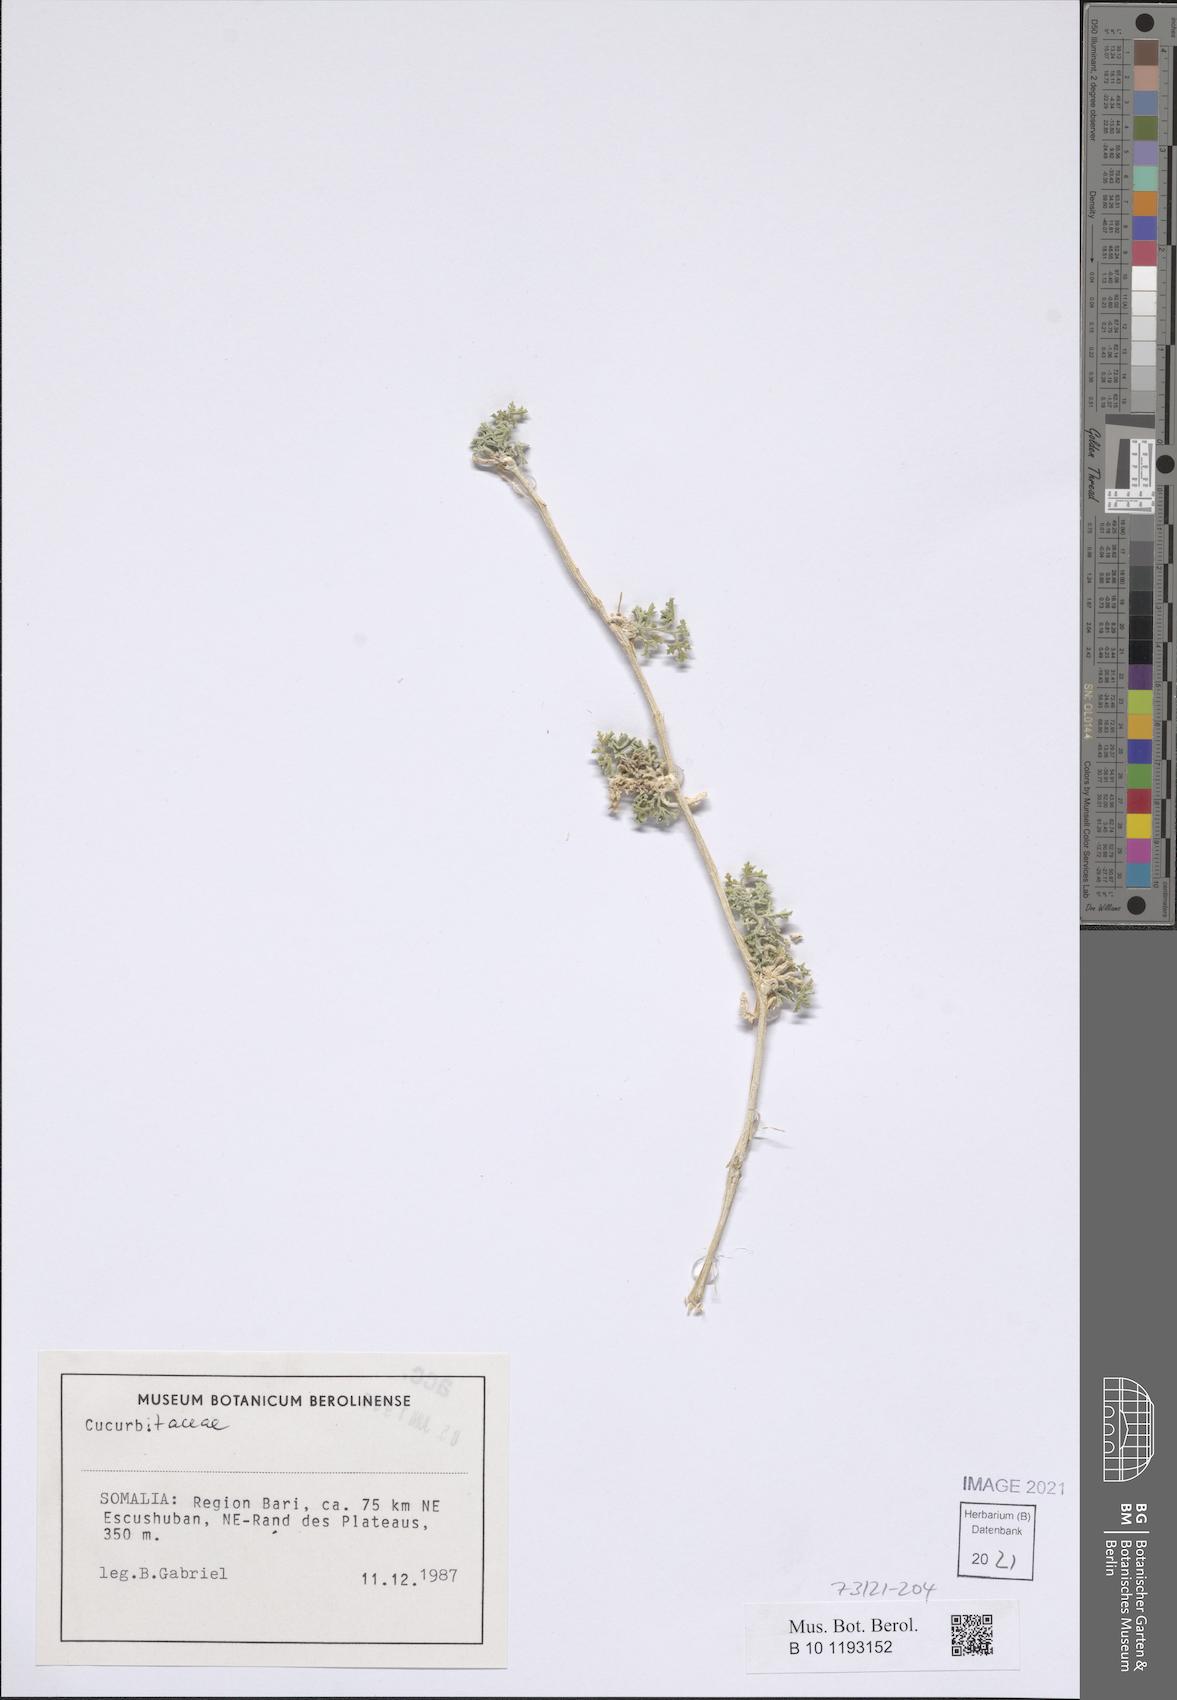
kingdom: Plantae
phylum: Tracheophyta
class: Magnoliopsida
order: Cucurbitales
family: Cucurbitaceae
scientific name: Cucurbitaceae
